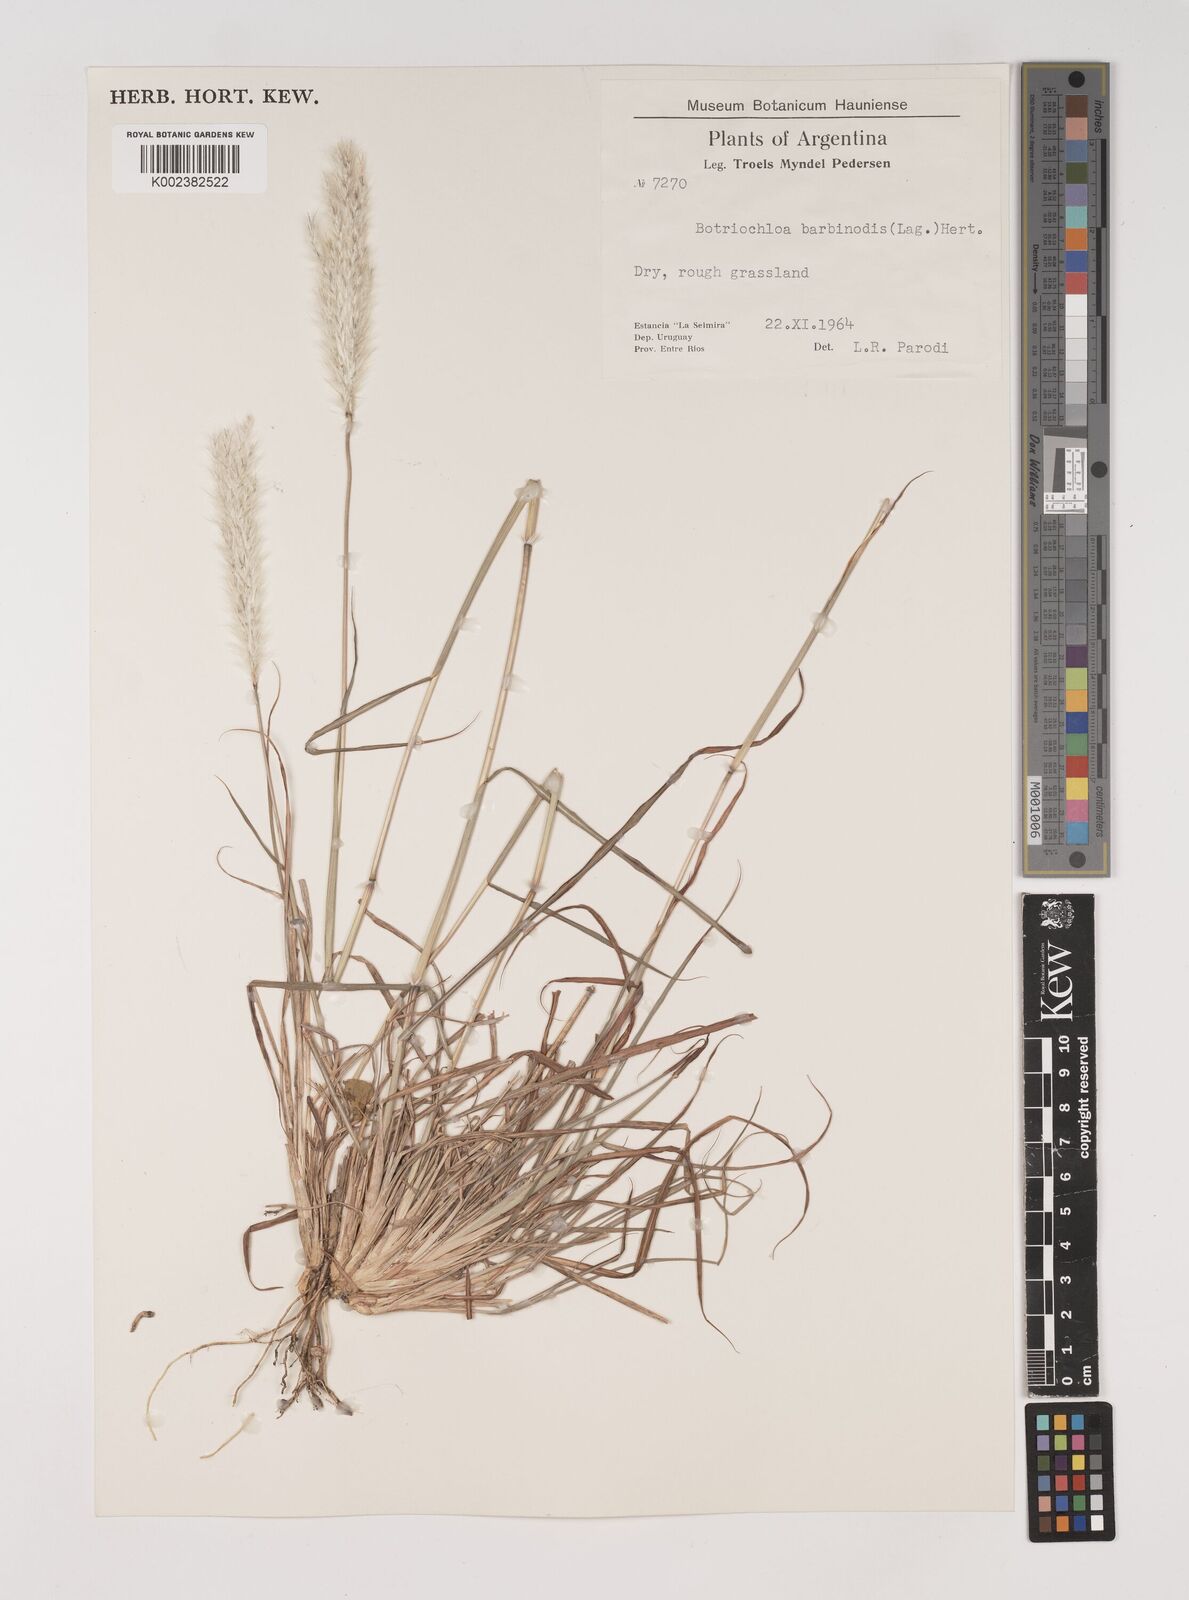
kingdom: Plantae
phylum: Tracheophyta
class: Liliopsida
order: Poales
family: Poaceae
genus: Bothriochloa
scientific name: Bothriochloa saccharoides
